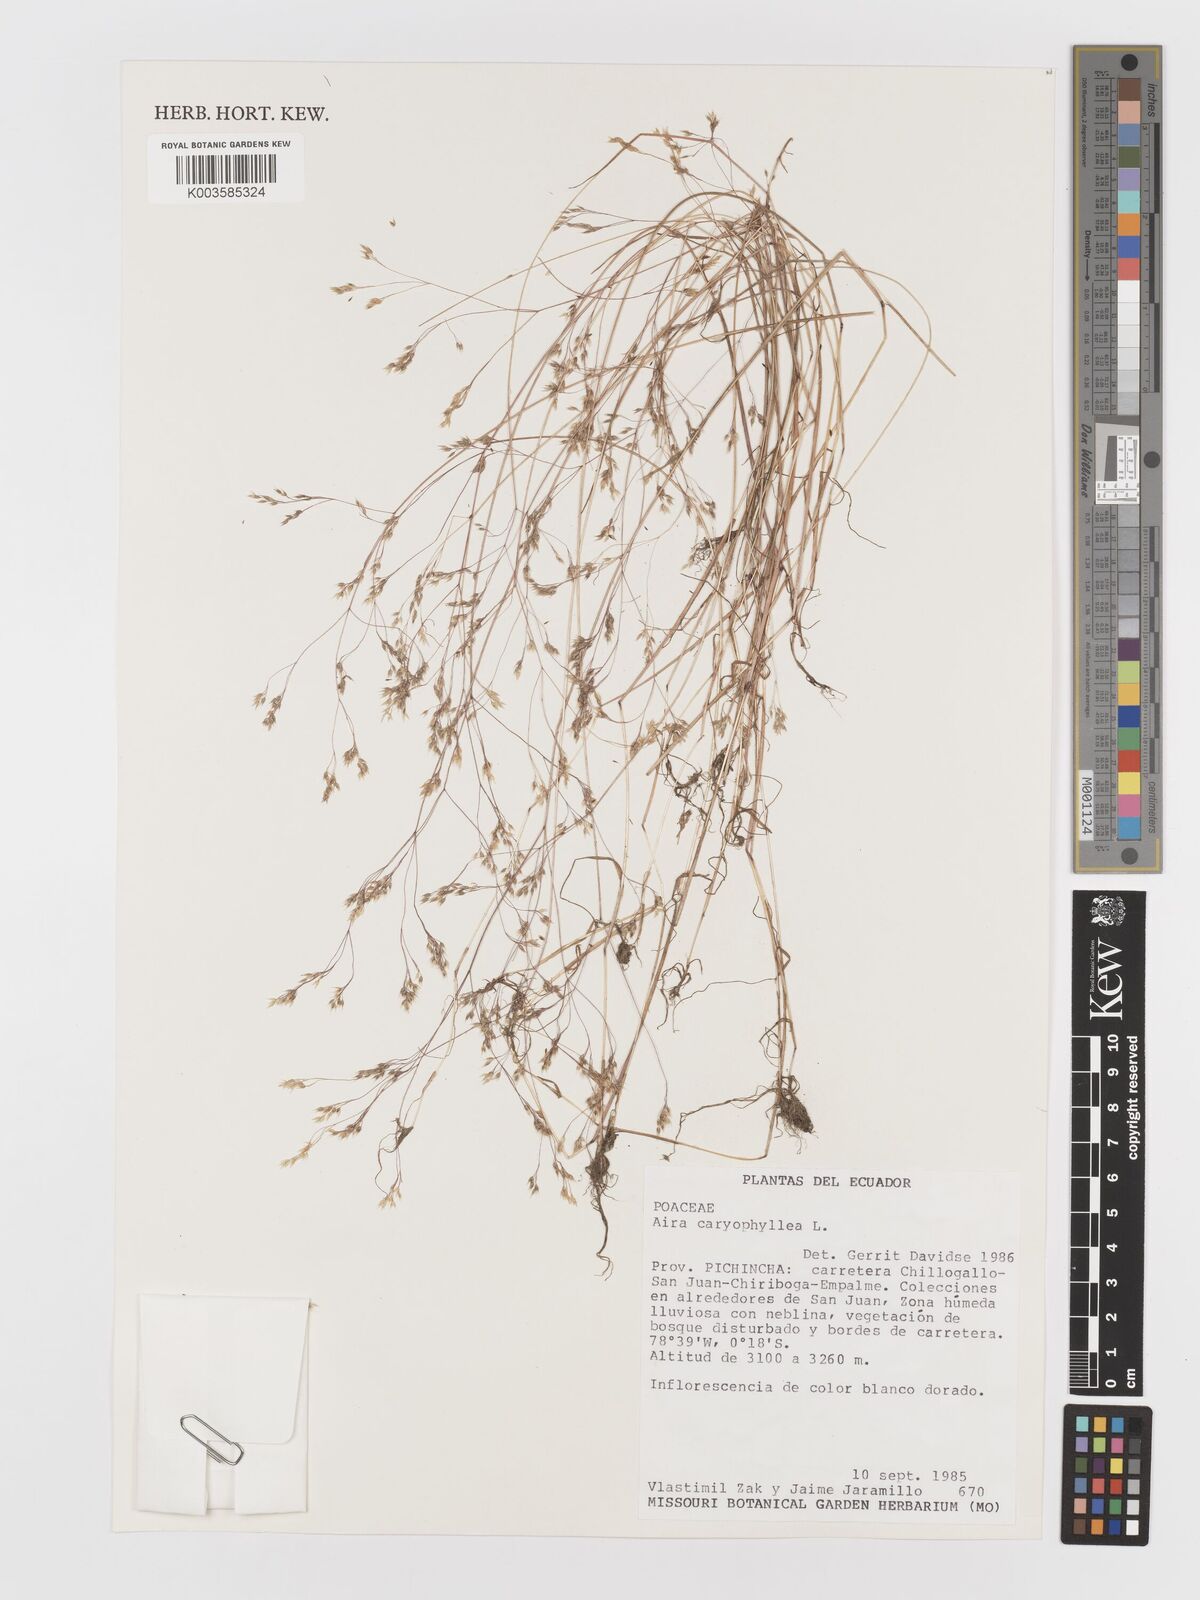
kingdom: Plantae
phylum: Tracheophyta
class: Liliopsida
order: Poales
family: Poaceae
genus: Aira
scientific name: Aira caryophyllea
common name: Silver hairgrass
